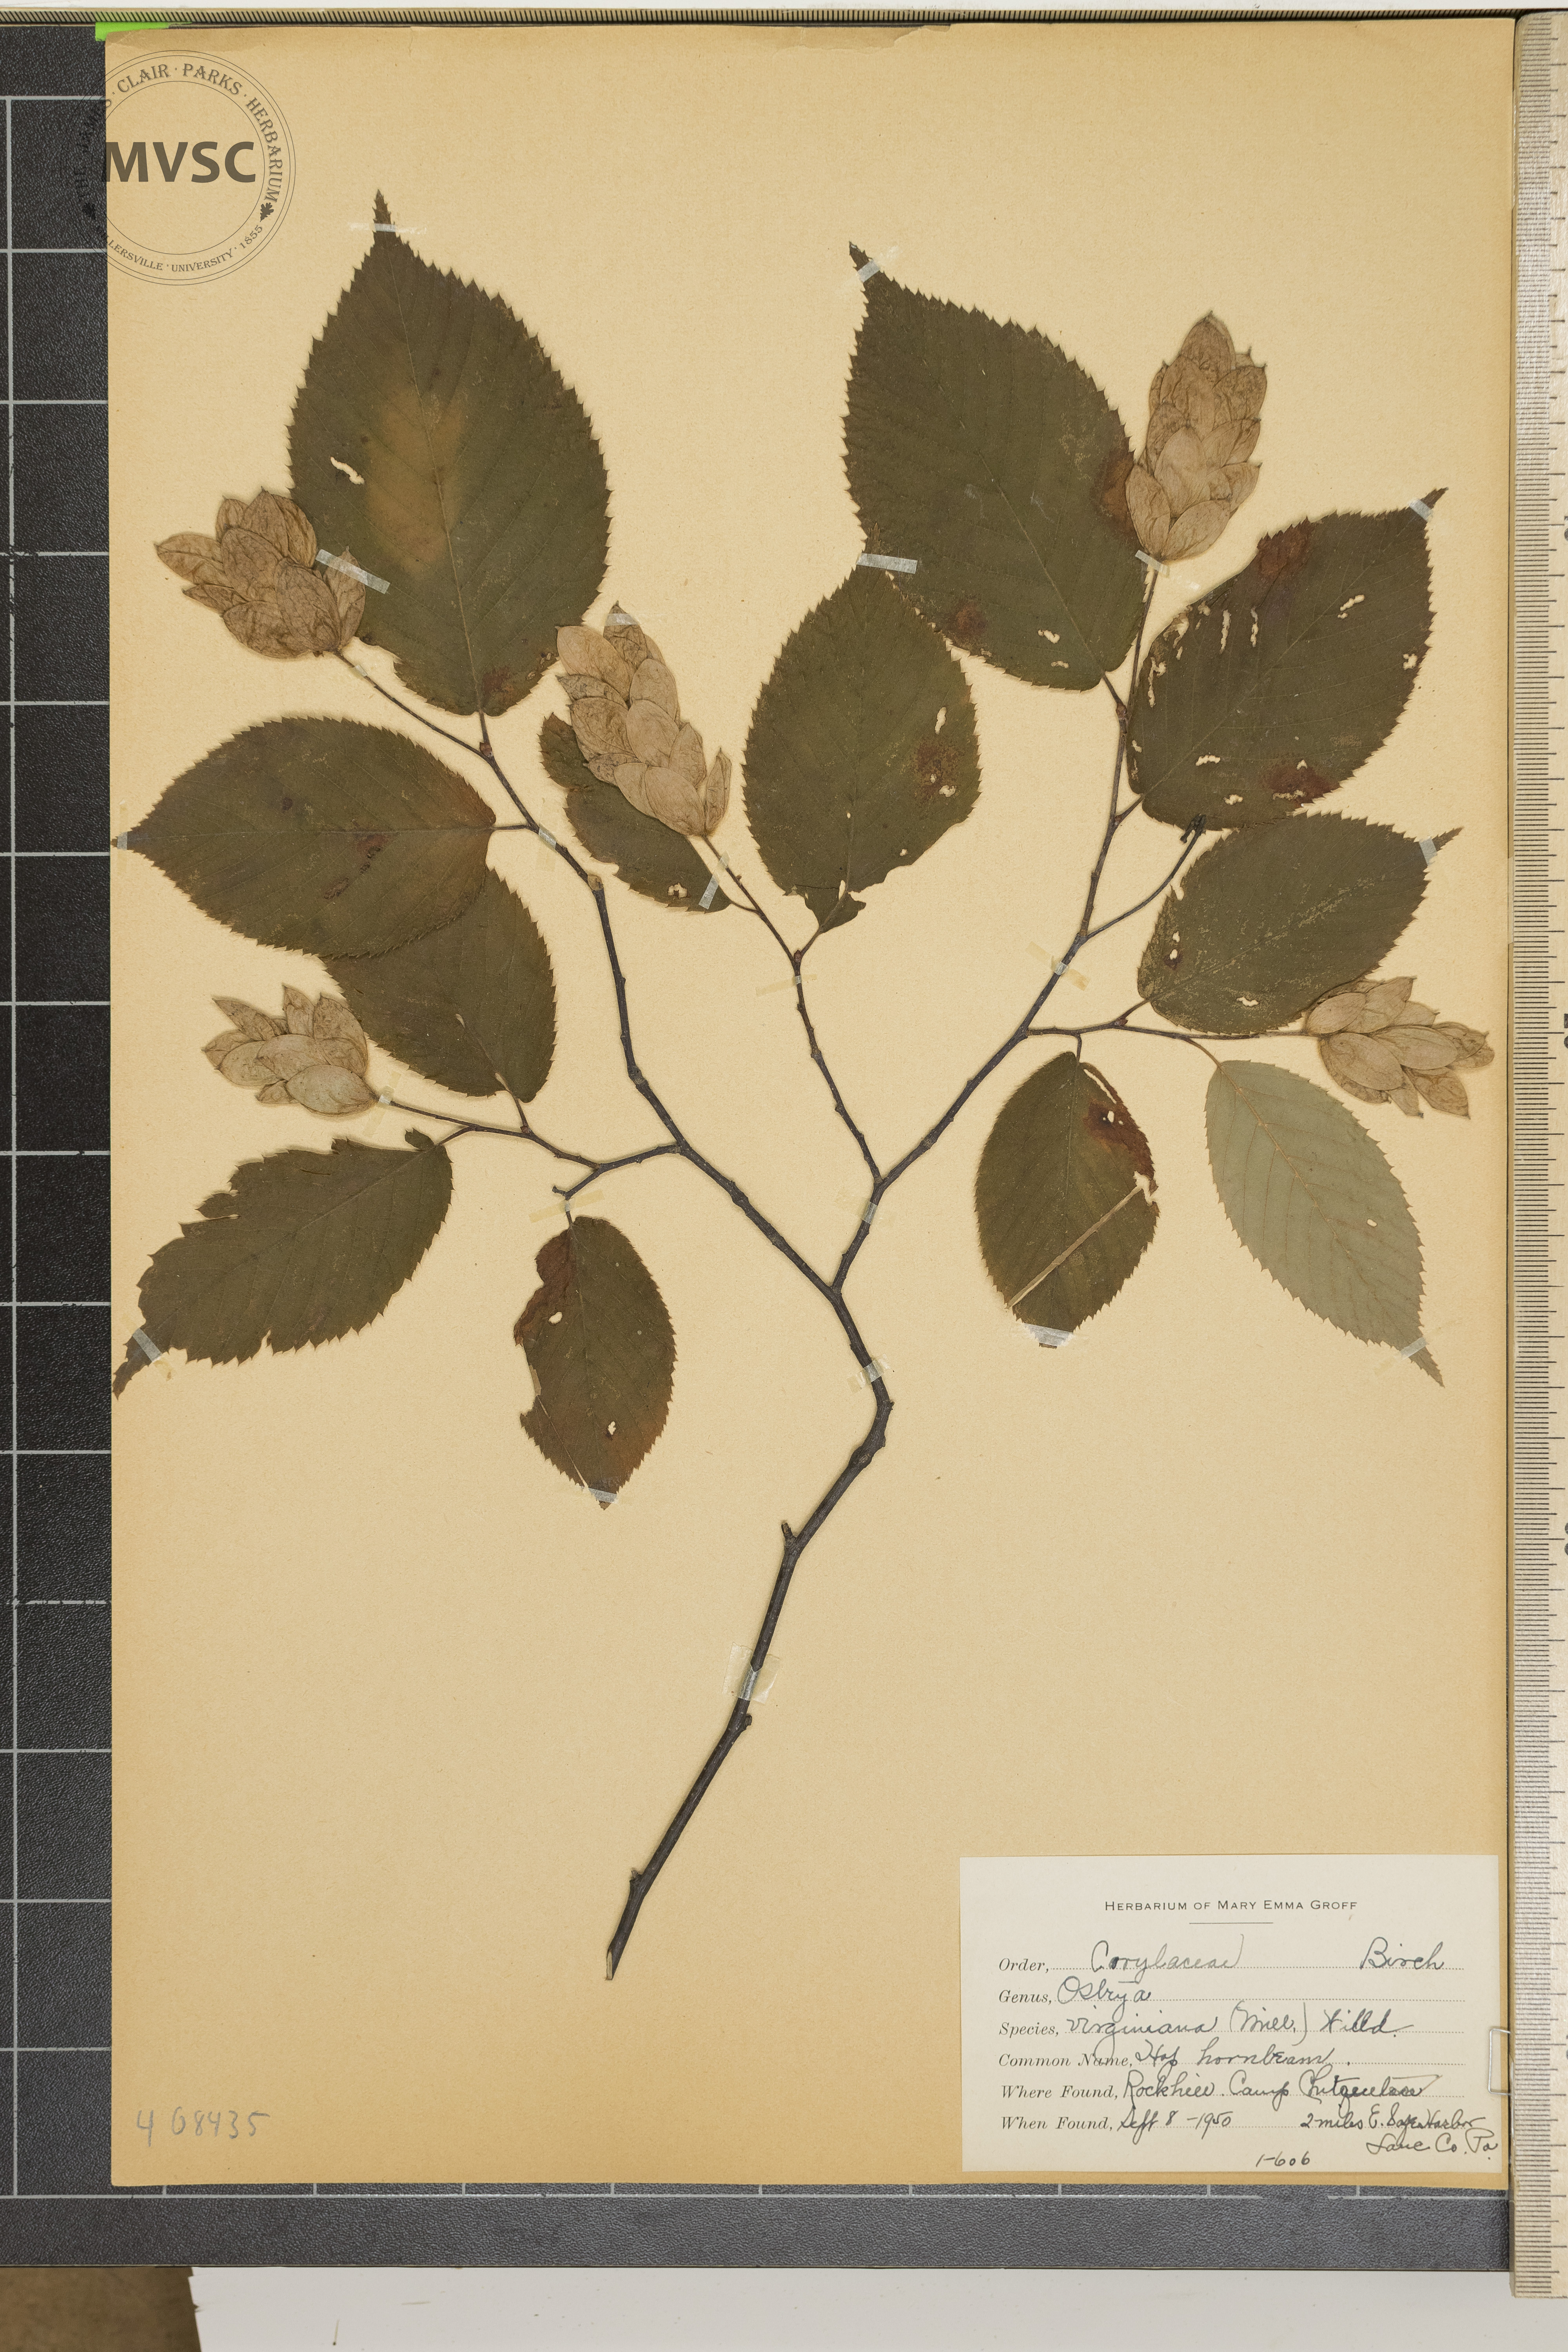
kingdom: Plantae
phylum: Tracheophyta
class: Magnoliopsida
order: Fagales
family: Betulaceae
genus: Ostrya
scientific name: Ostrya virginiana
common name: Hop Hornbeam
